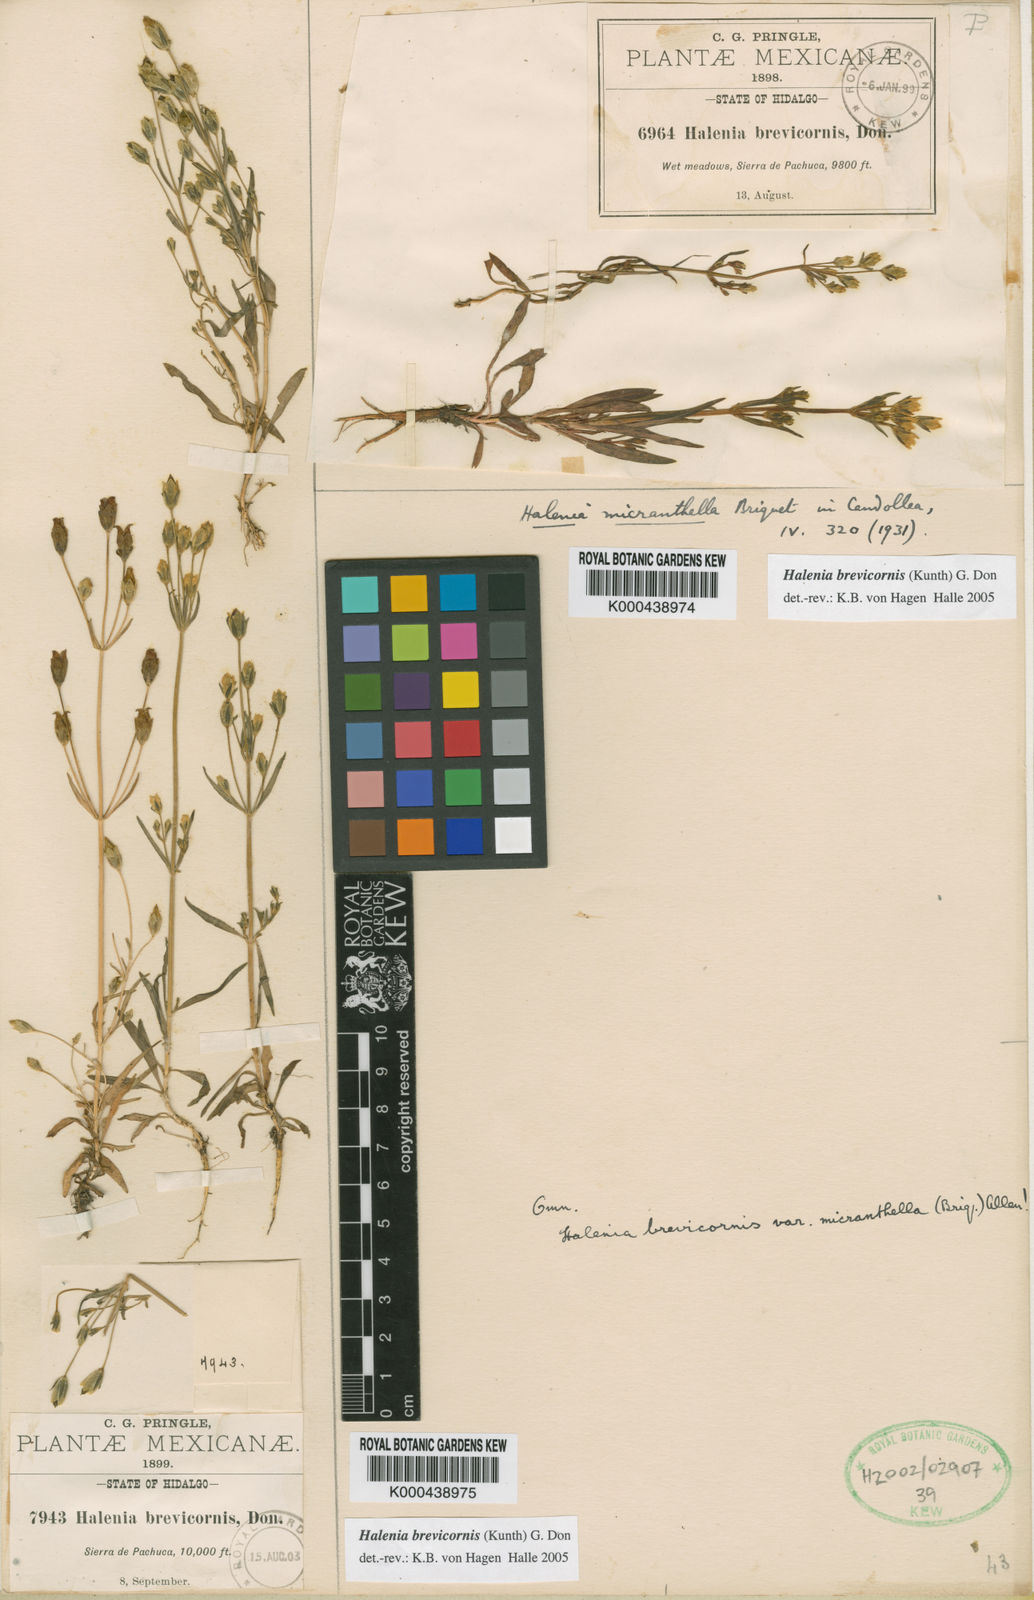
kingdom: Plantae
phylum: Tracheophyta
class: Magnoliopsida
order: Gentianales
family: Gentianaceae
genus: Halenia
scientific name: Halenia brevicornis
